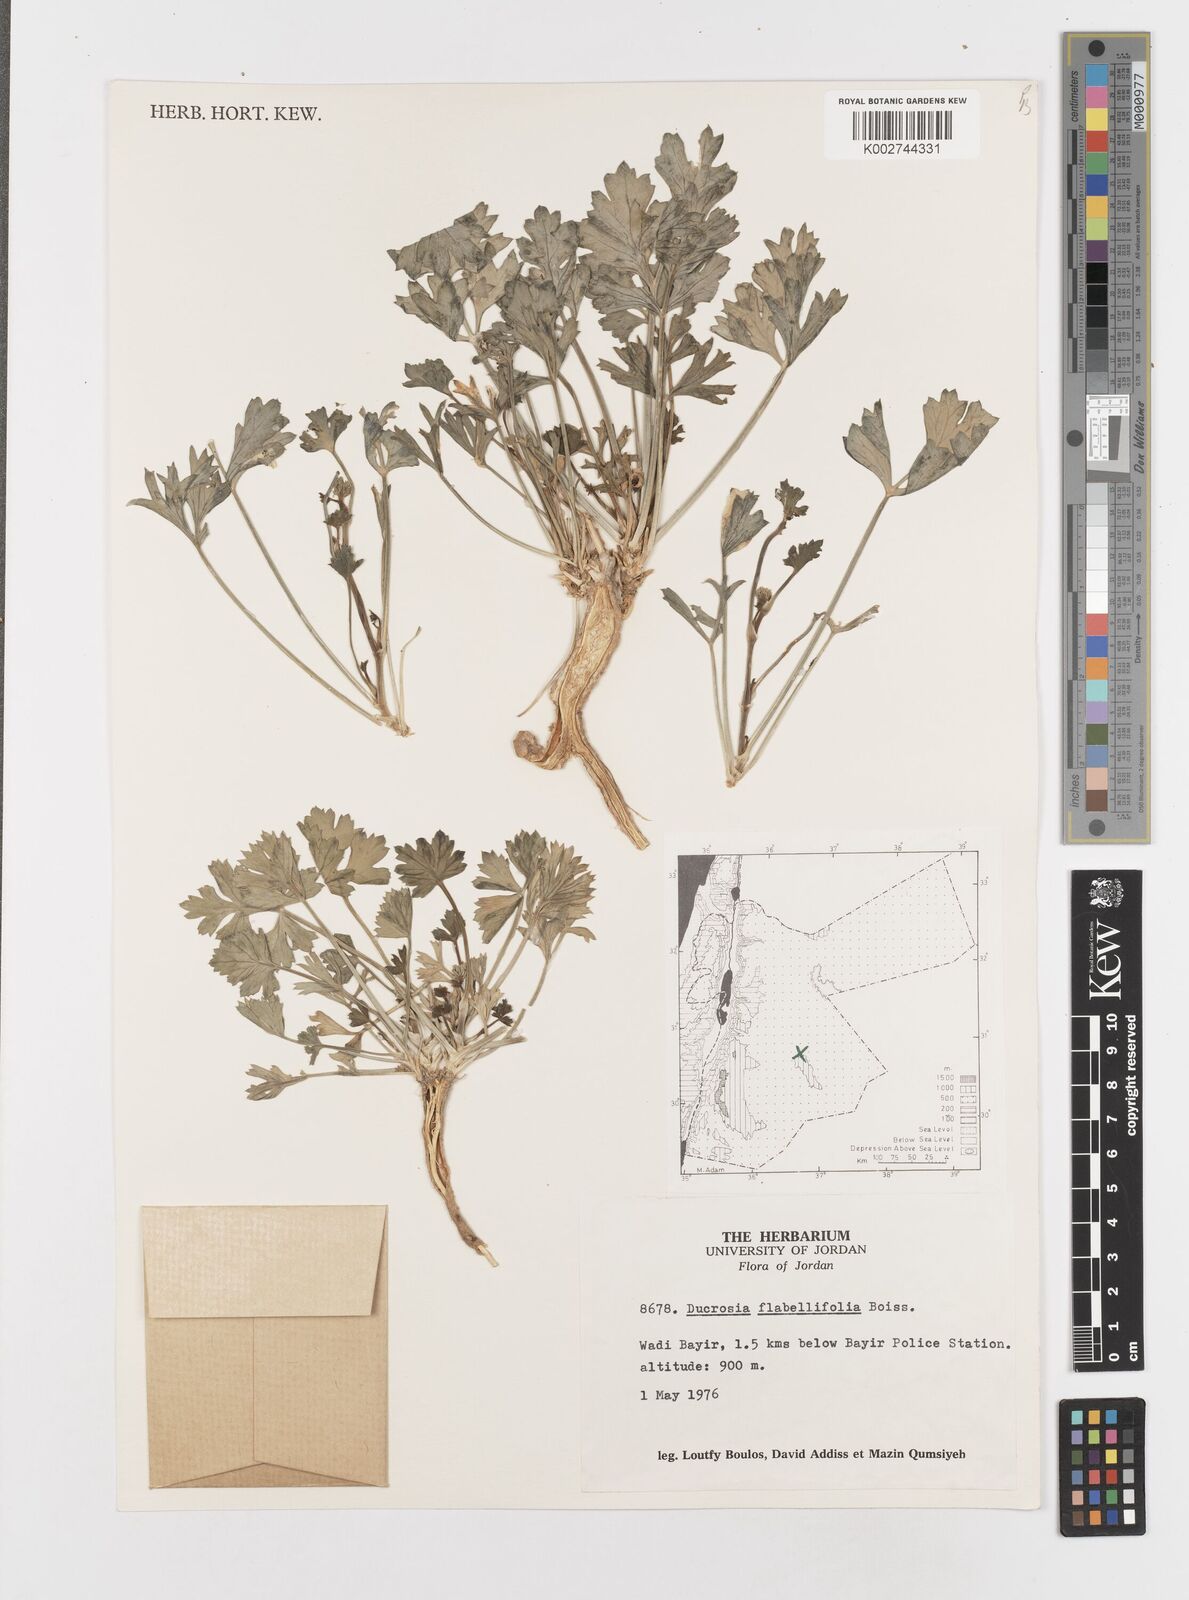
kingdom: Plantae
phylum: Tracheophyta
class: Magnoliopsida
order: Apiales
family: Apiaceae
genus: Ducrosia
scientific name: Ducrosia flabellifolia
